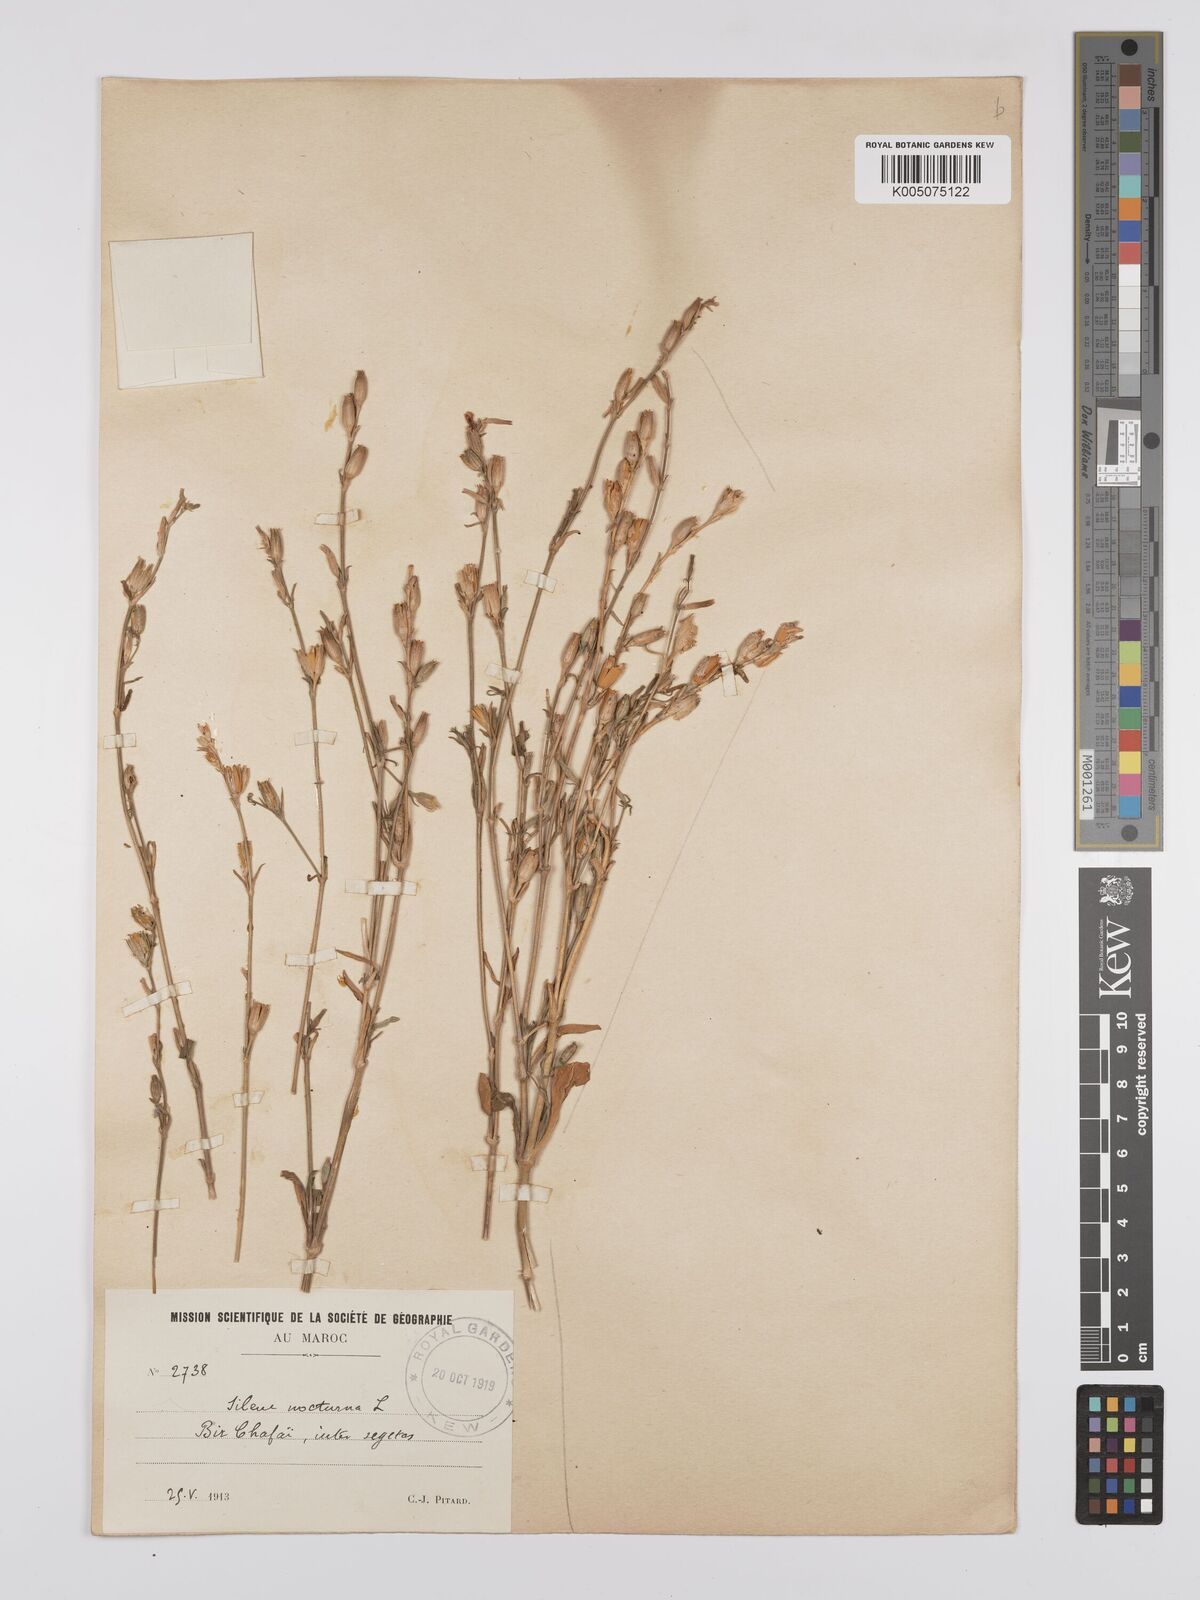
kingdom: Plantae
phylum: Tracheophyta
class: Magnoliopsida
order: Caryophyllales
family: Caryophyllaceae
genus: Silene
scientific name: Silene nocturna
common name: Mediterranean catchfly
